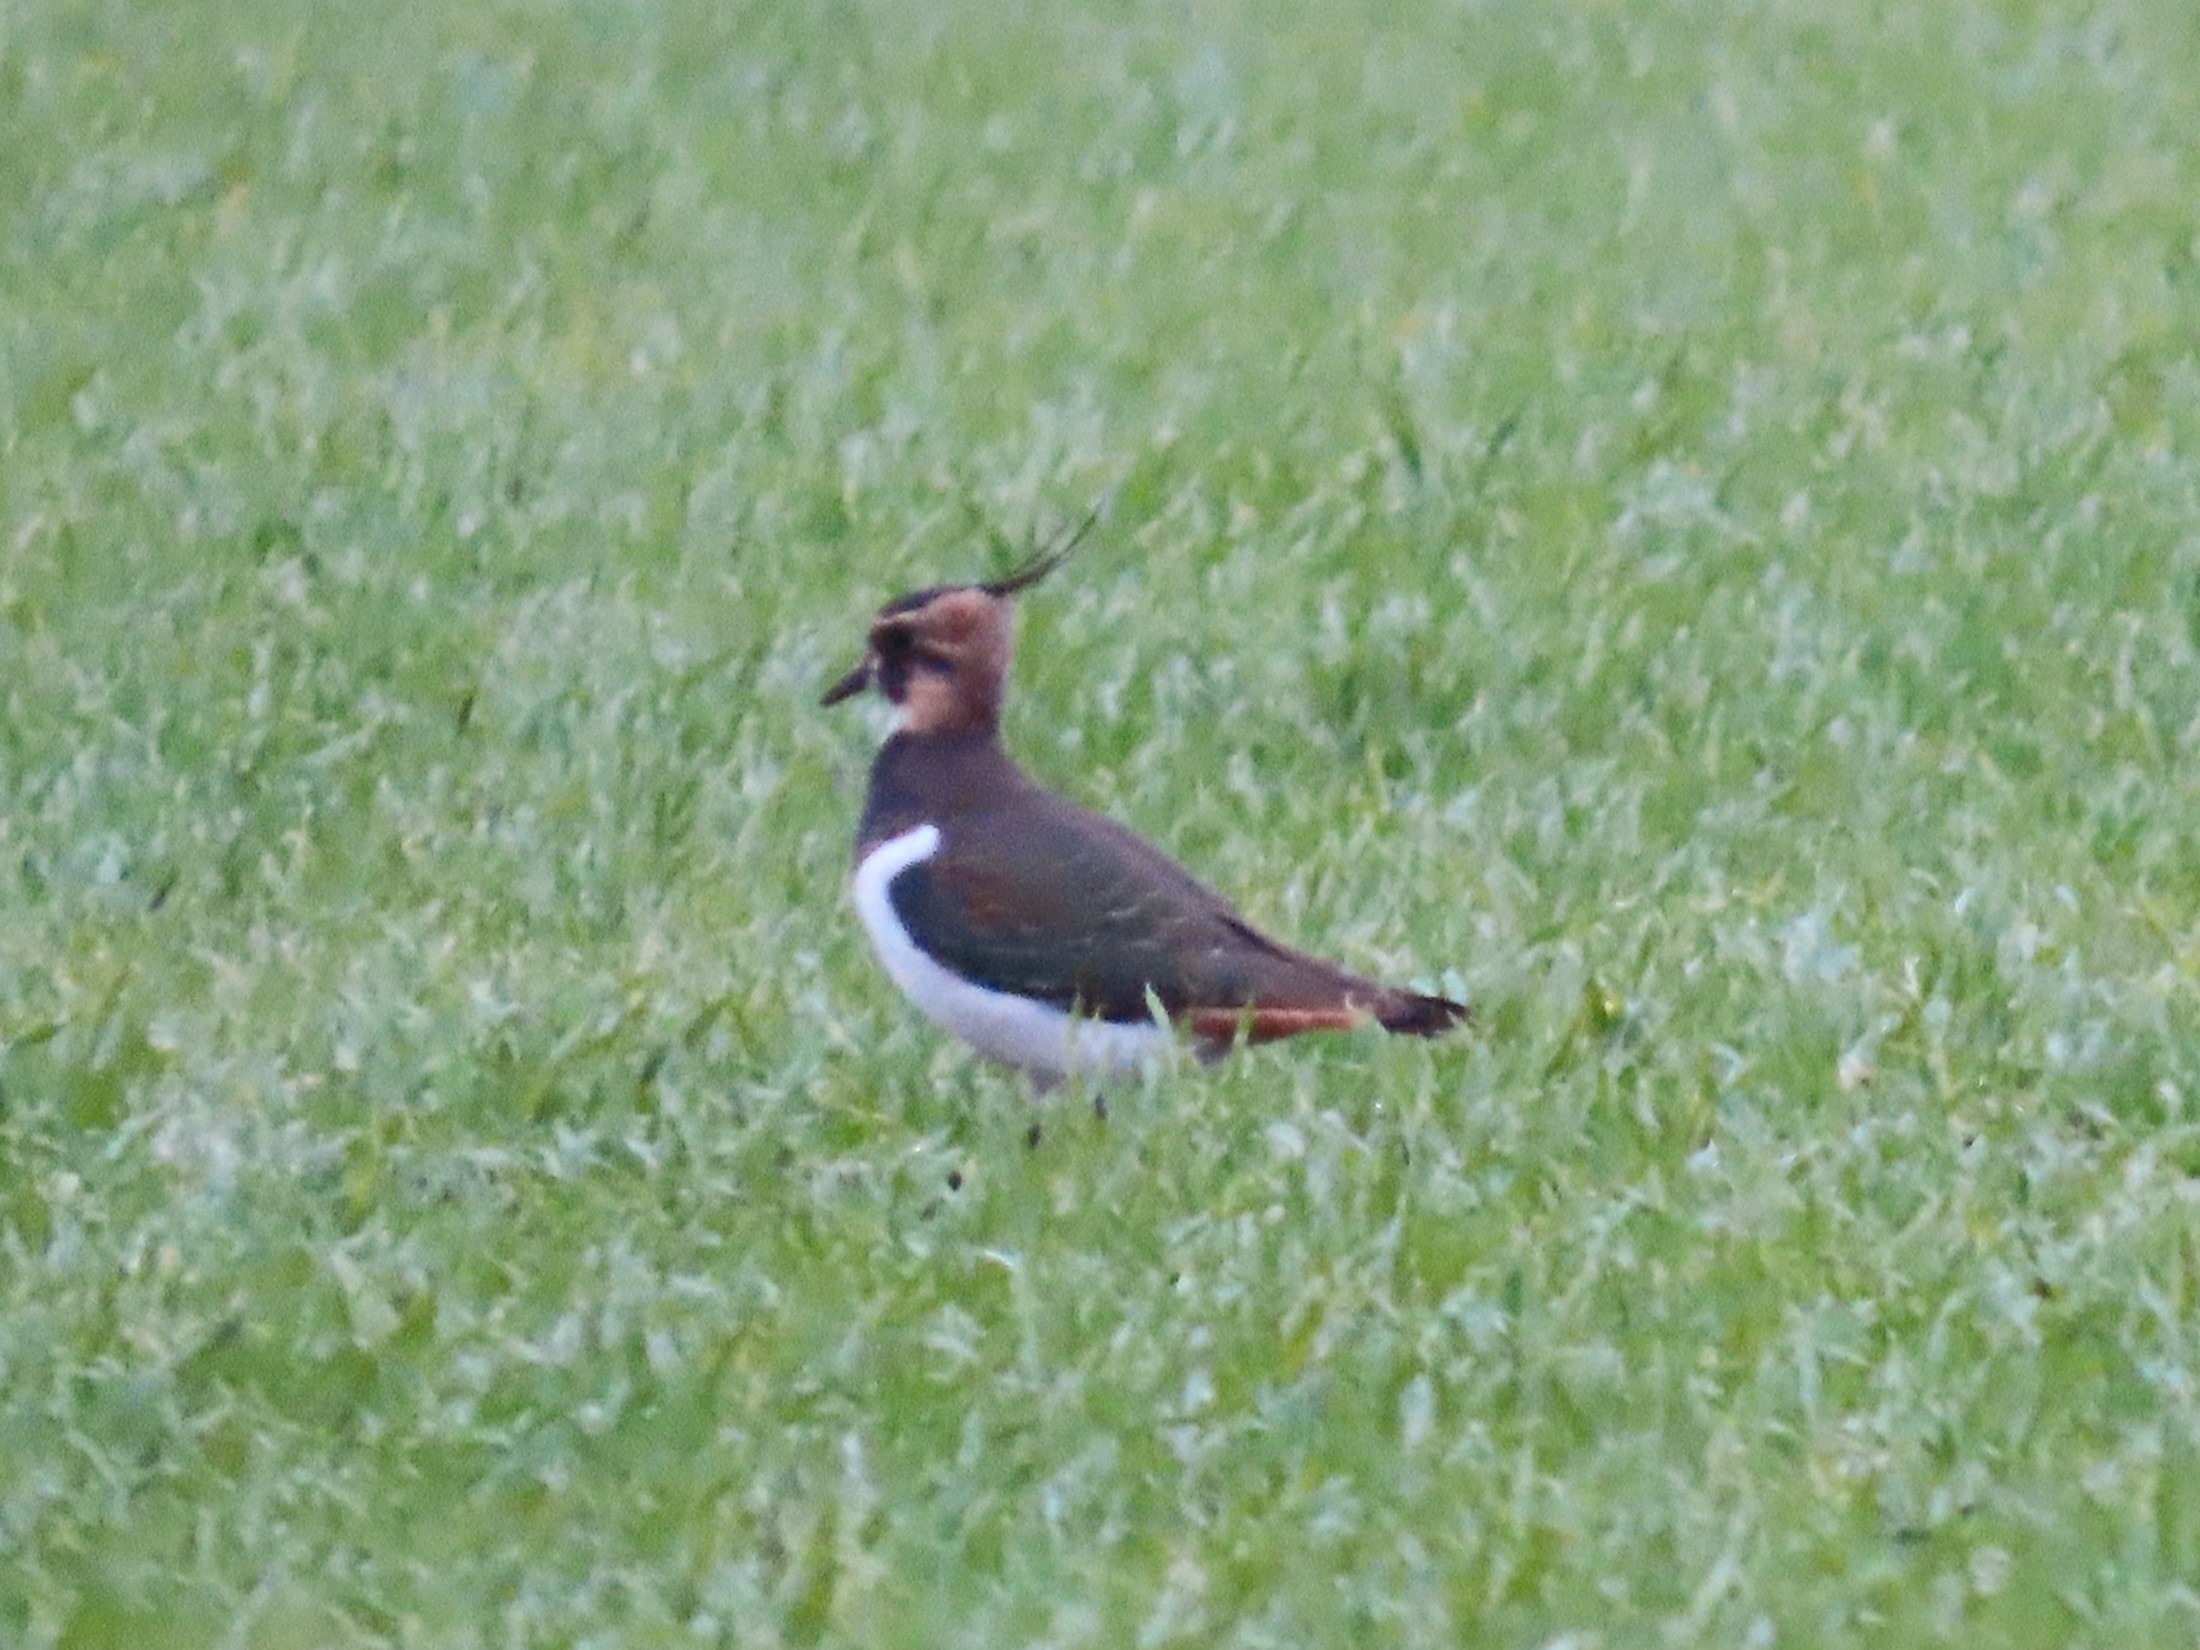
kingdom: Animalia
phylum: Chordata
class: Aves
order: Charadriiformes
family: Charadriidae
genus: Vanellus
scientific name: Vanellus vanellus
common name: Vibe
